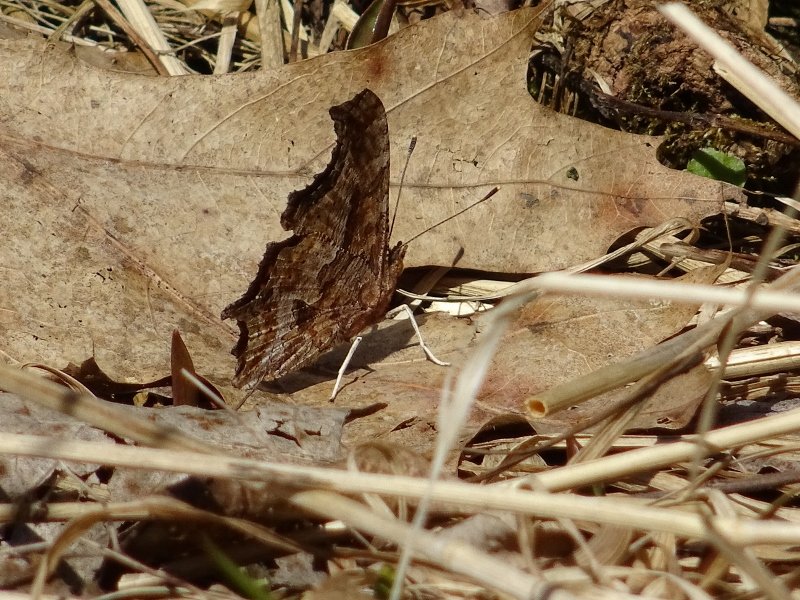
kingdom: Animalia
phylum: Arthropoda
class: Insecta
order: Lepidoptera
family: Nymphalidae
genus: Polygonia
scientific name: Polygonia comma
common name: Eastern Comma
